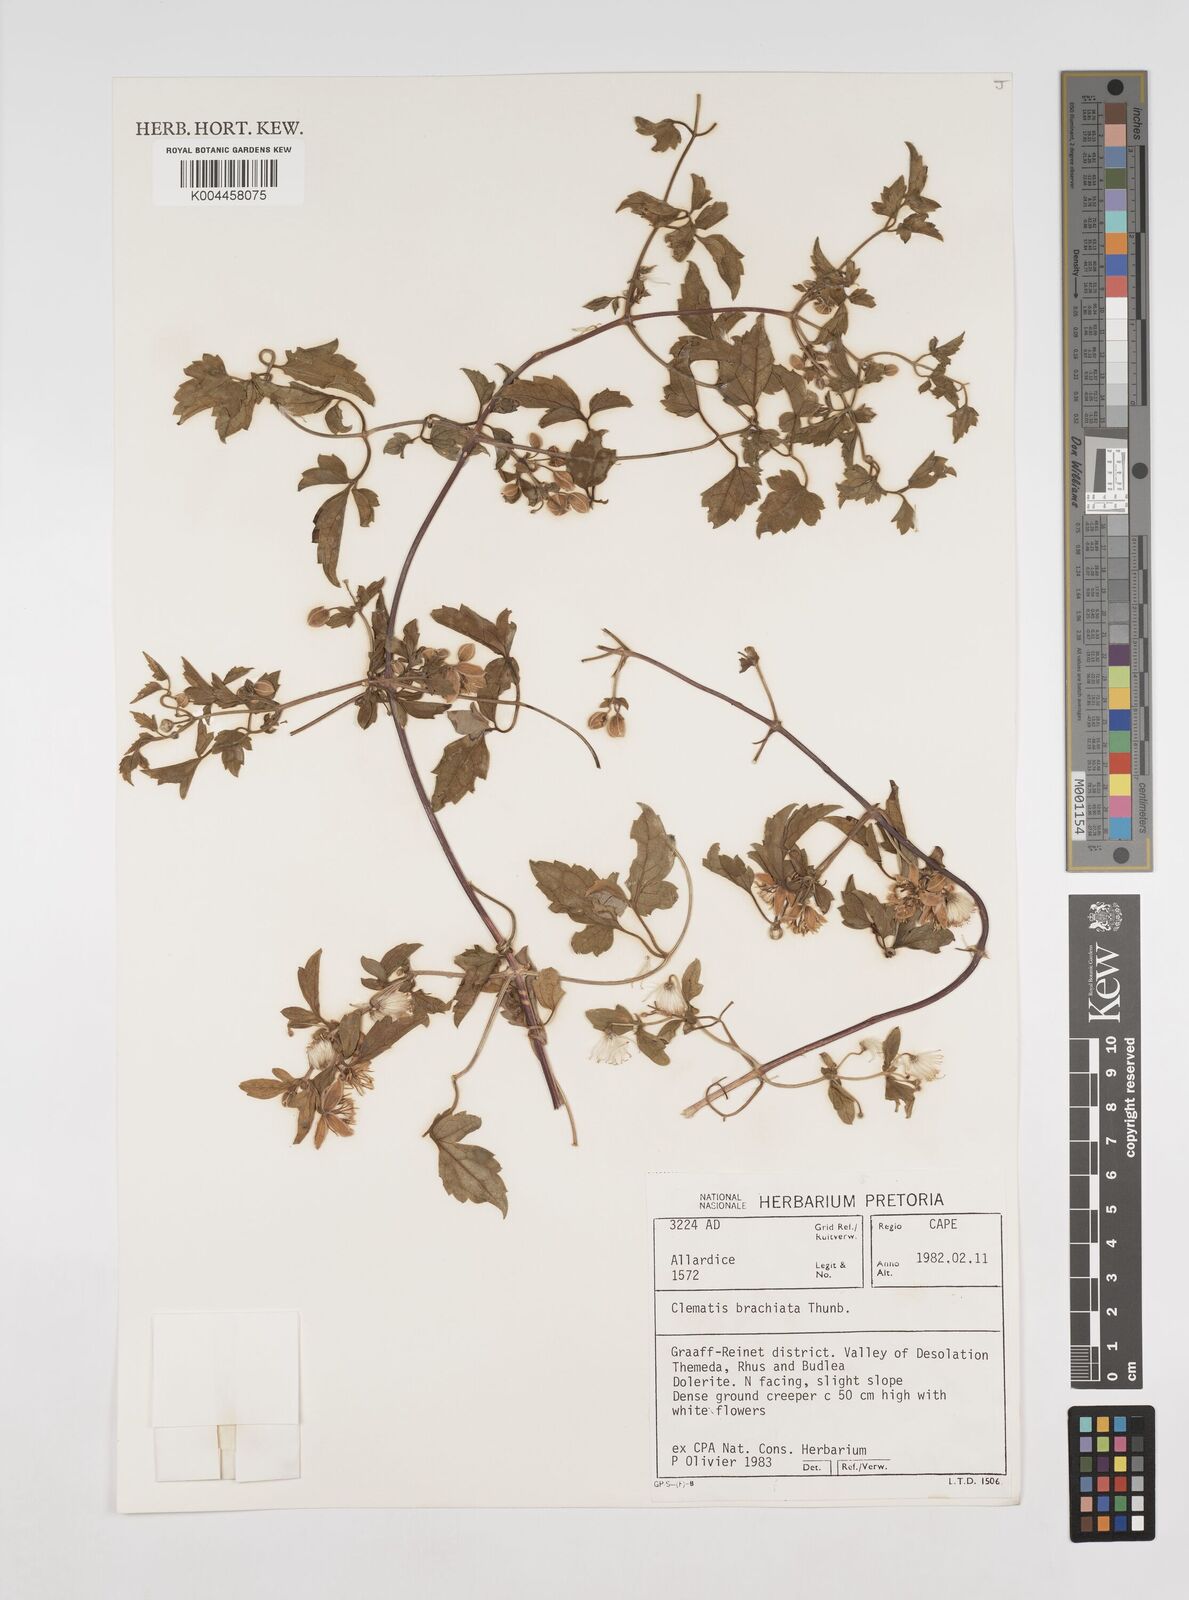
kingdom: Plantae
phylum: Tracheophyta
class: Magnoliopsida
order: Ranunculales
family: Ranunculaceae
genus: Clematis
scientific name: Clematis brachiata
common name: Traveler's-joy
